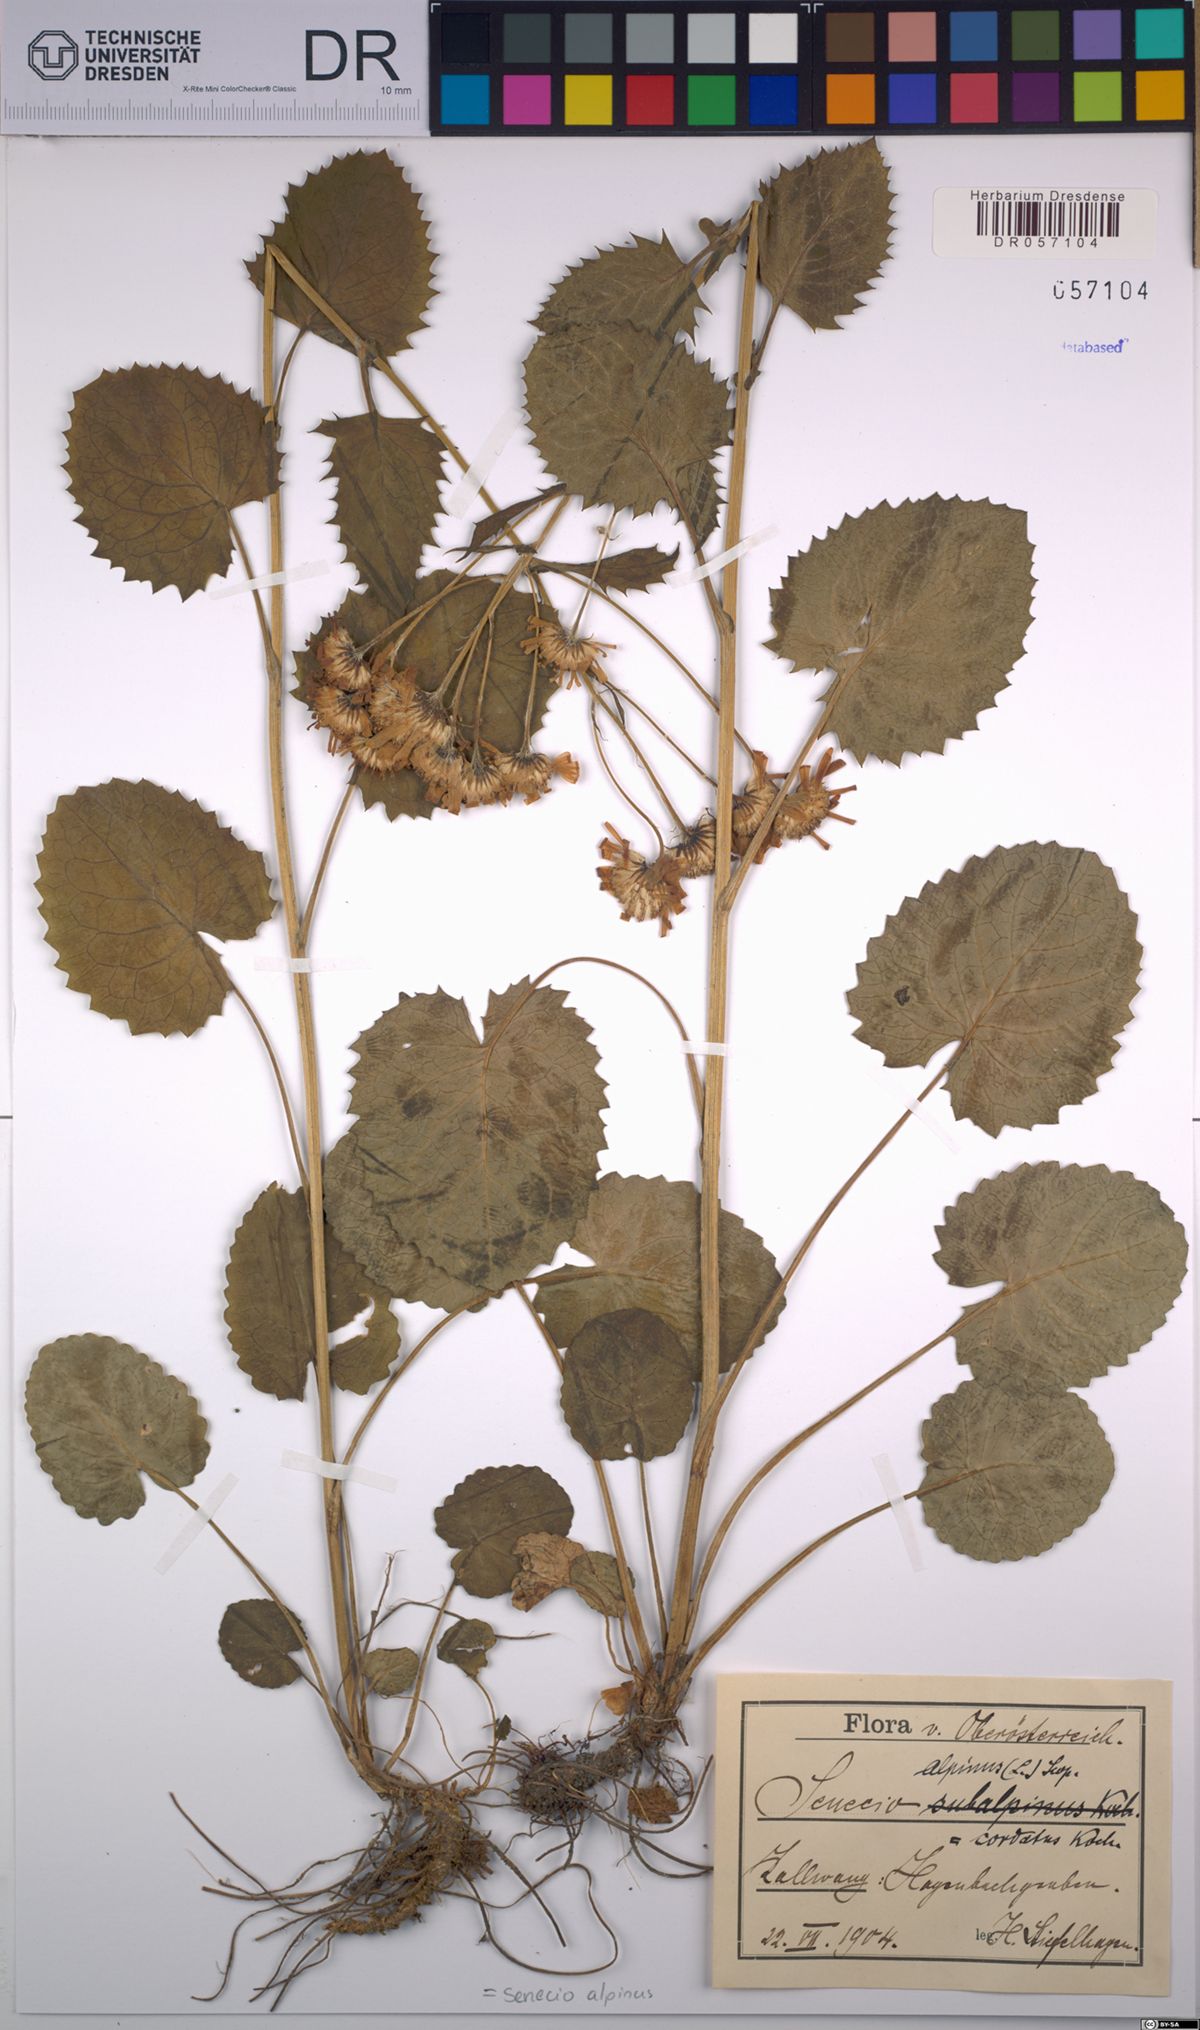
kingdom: Plantae
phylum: Tracheophyta
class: Magnoliopsida
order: Asterales
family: Asteraceae
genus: Jacobaea
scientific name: Jacobaea alpina
